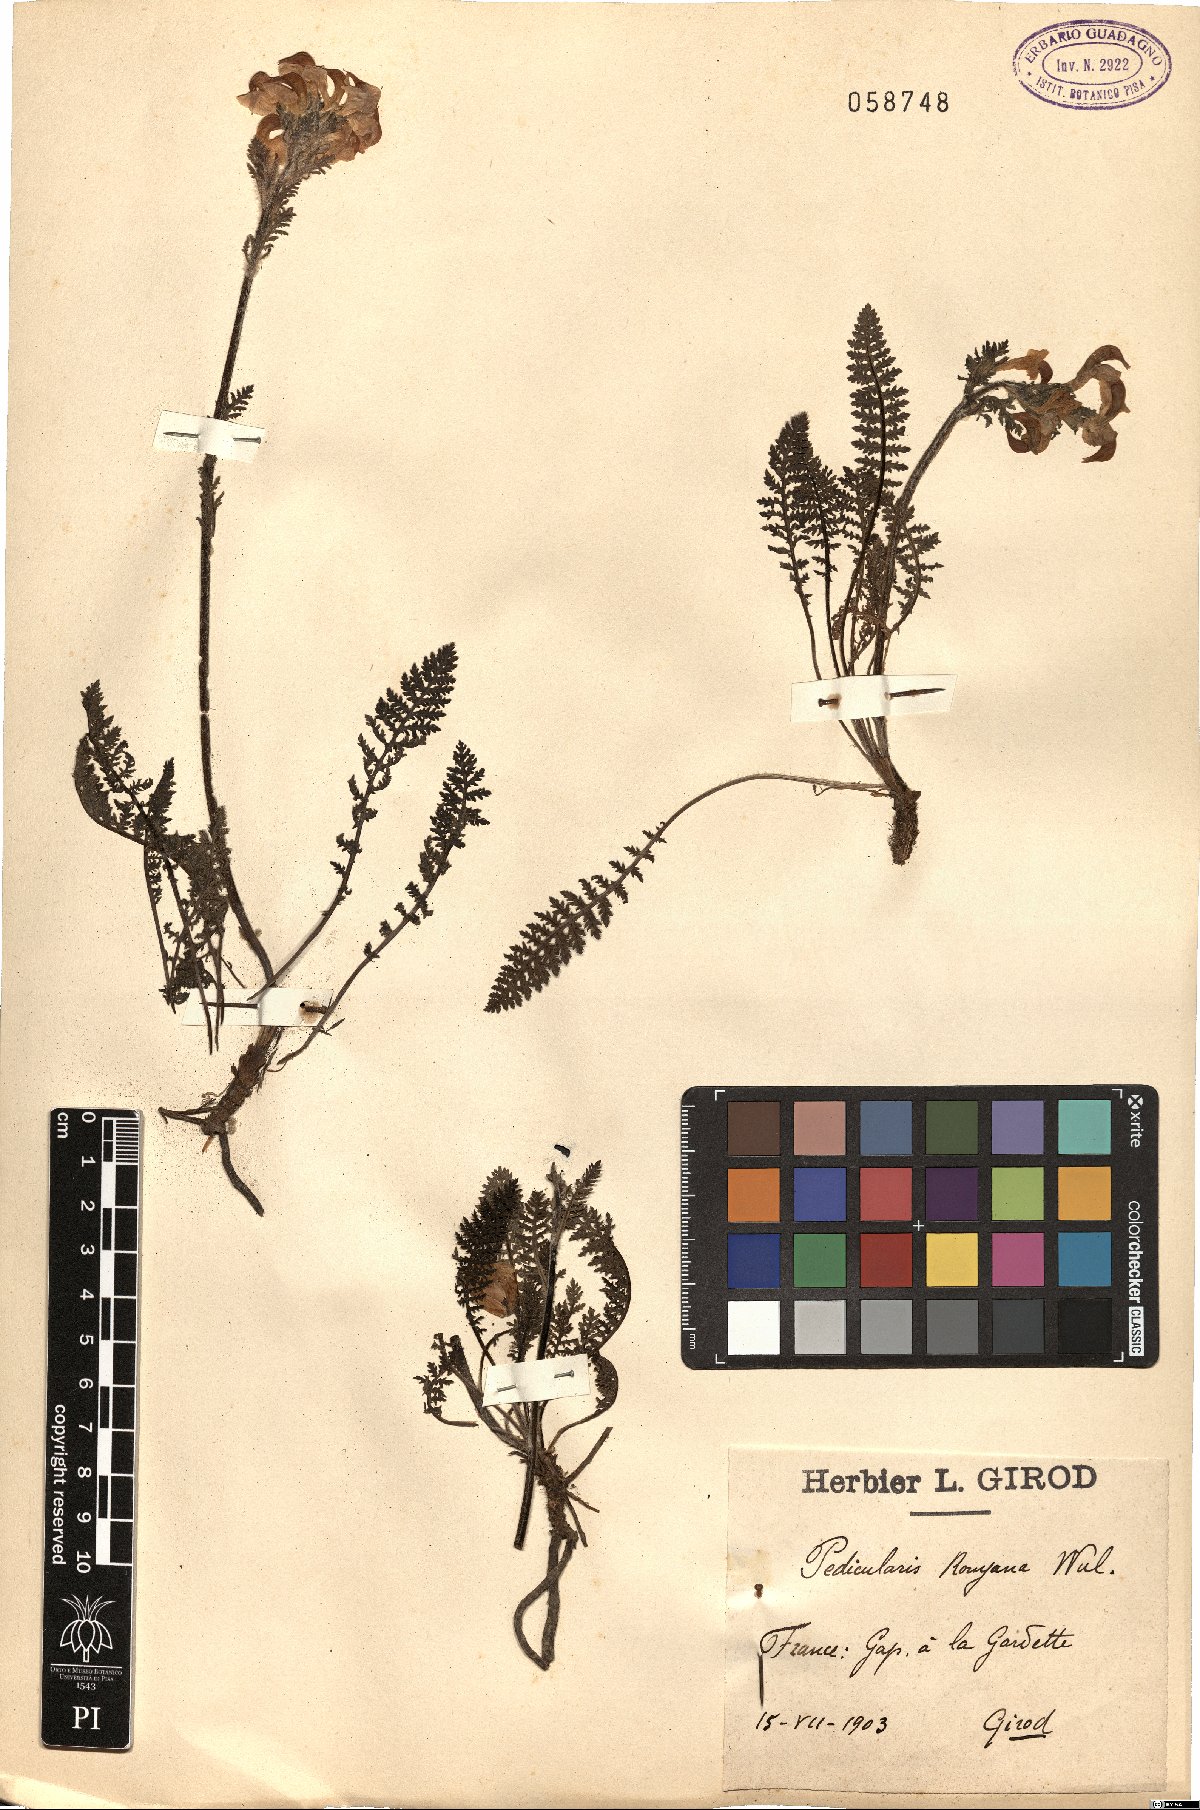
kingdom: Plantae
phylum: Tracheophyta
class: Magnoliopsida
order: Lamiales
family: Scrophulariaceae
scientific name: Scrophulariaceae
